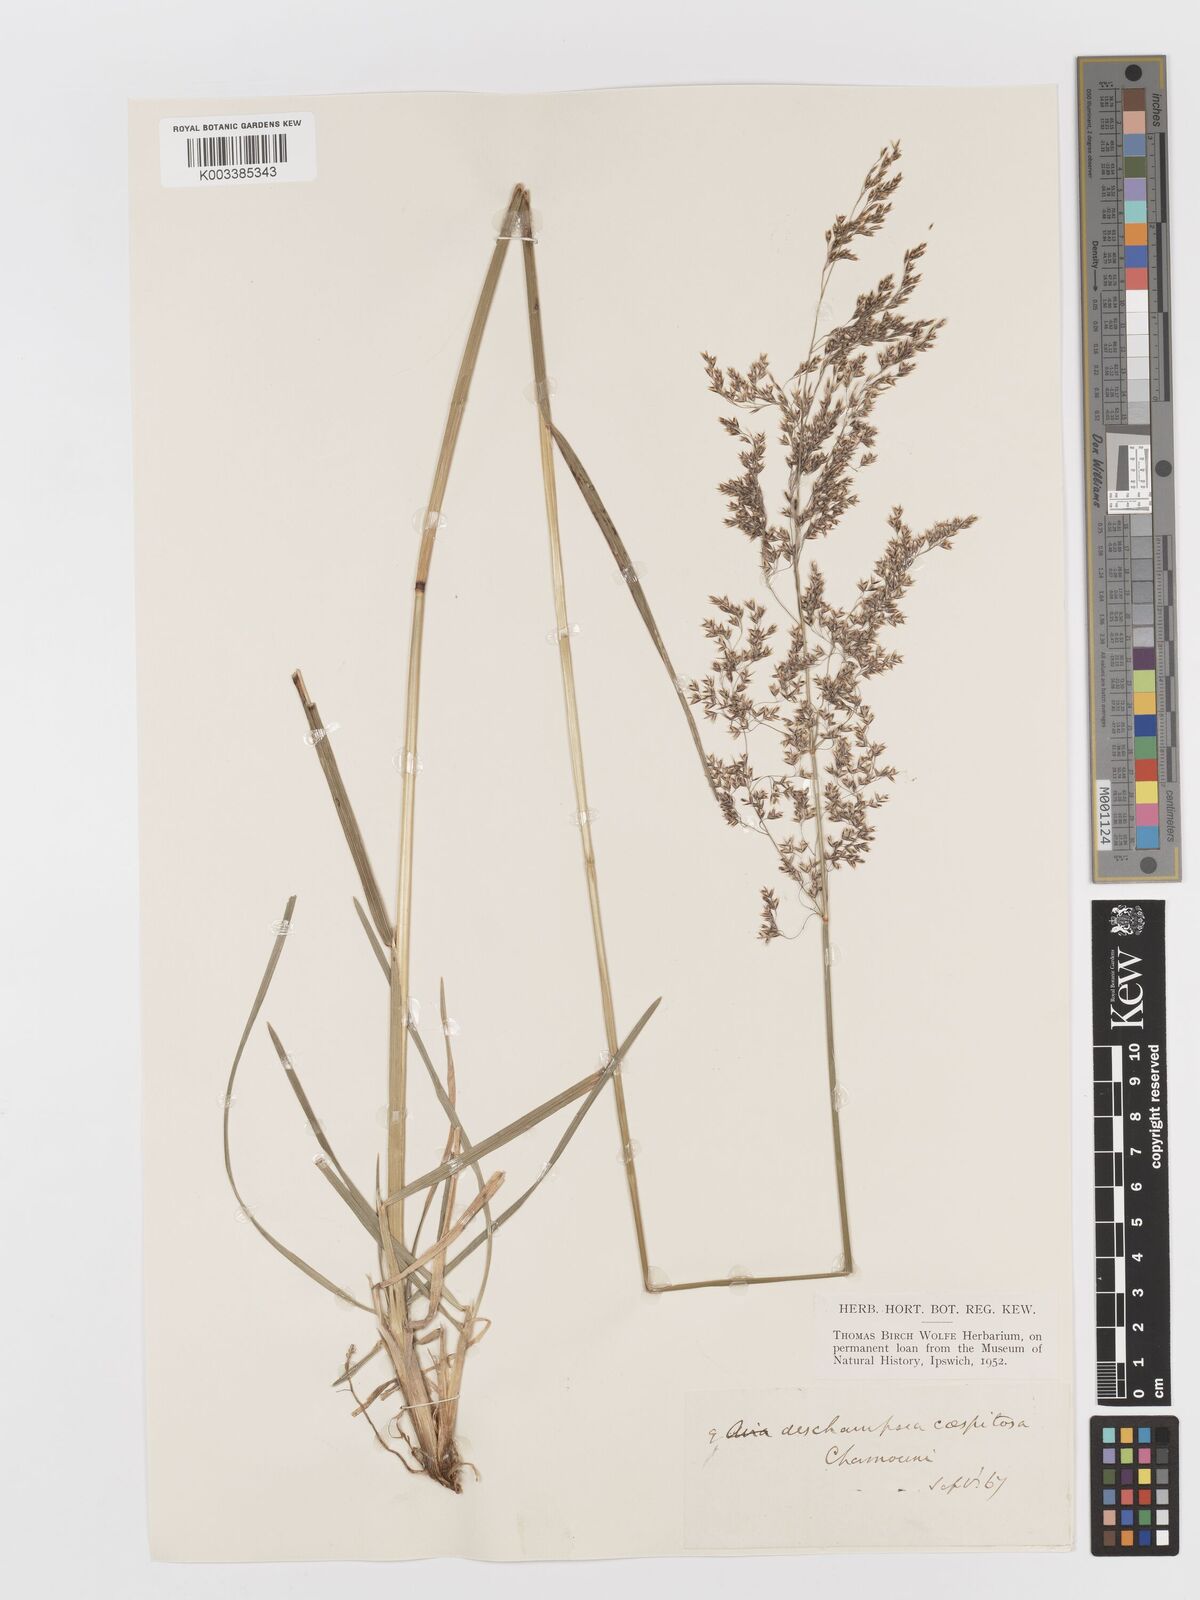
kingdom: Plantae
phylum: Tracheophyta
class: Liliopsida
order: Poales
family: Poaceae
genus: Deschampsia
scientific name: Deschampsia cespitosa
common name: Tufted hair-grass
